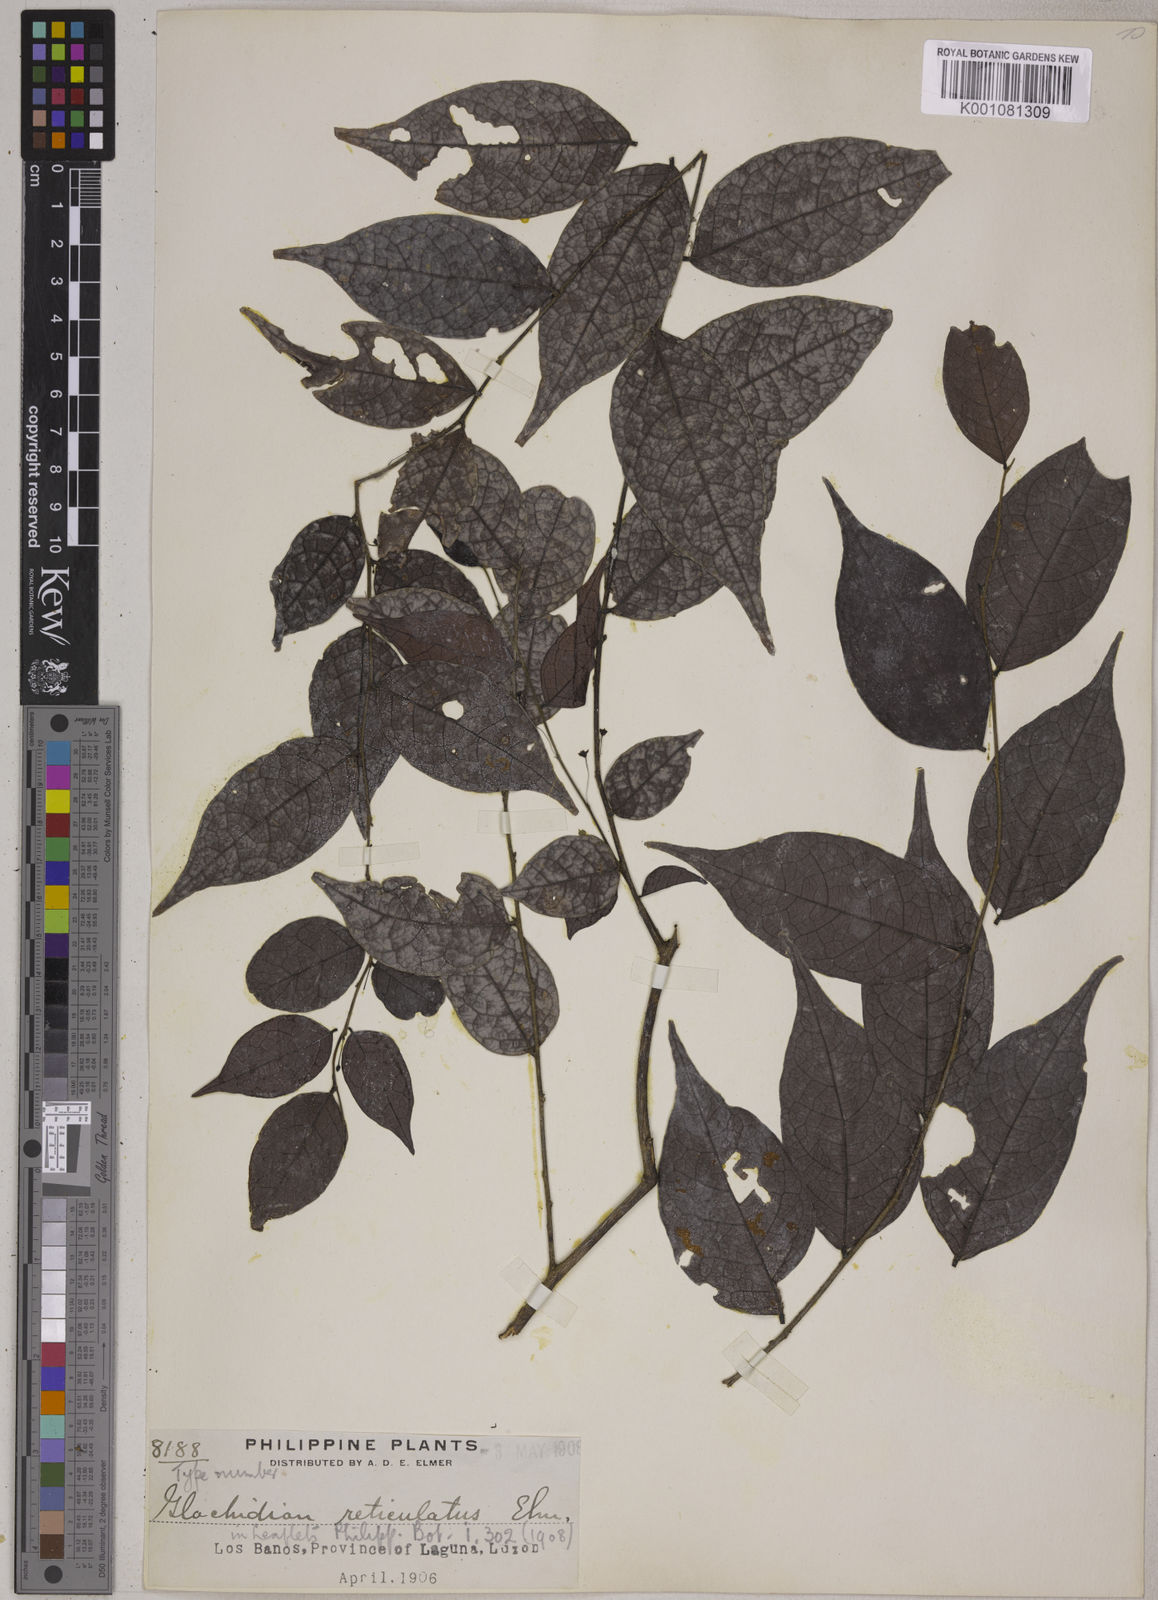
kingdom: Plantae
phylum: Tracheophyta
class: Magnoliopsida
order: Malpighiales
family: Phyllanthaceae
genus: Glochidion
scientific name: Glochidion reticulatum
